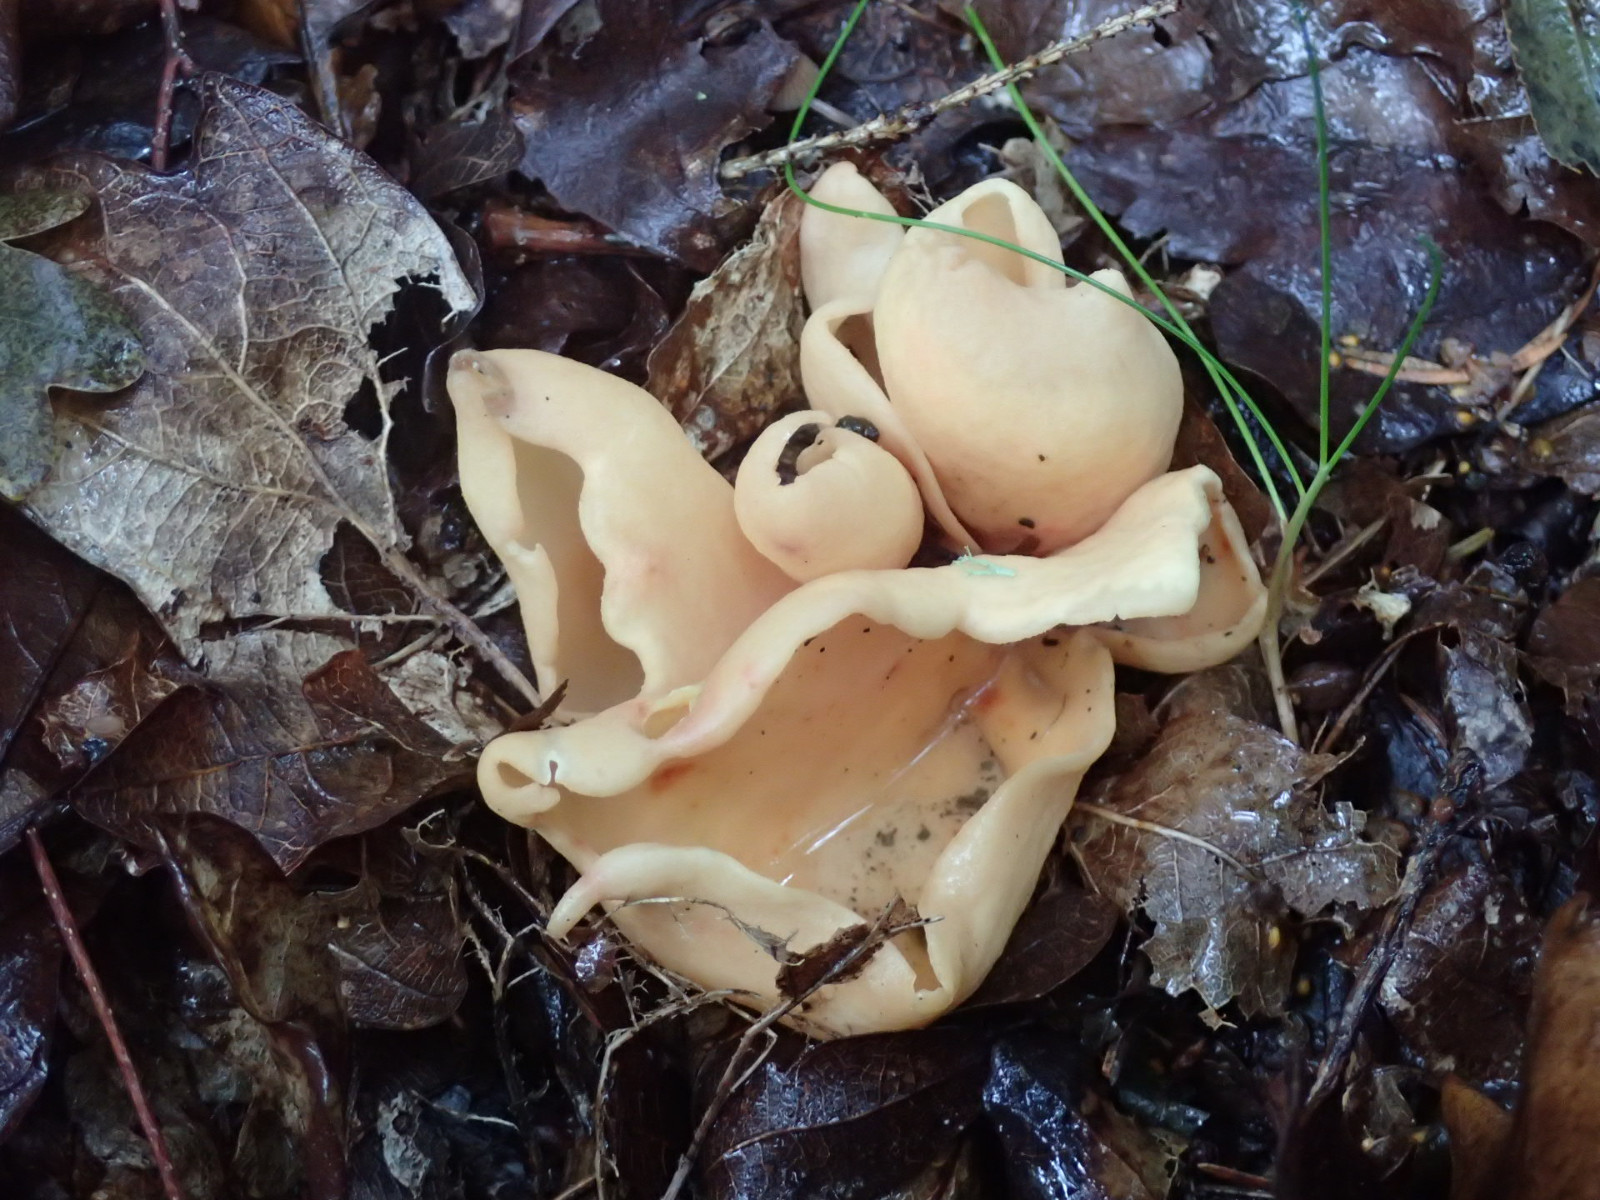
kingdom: Fungi
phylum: Ascomycota
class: Pezizomycetes
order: Pezizales
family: Otideaceae
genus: Otidea
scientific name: Otidea onotica
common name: æsel-ørebæger
